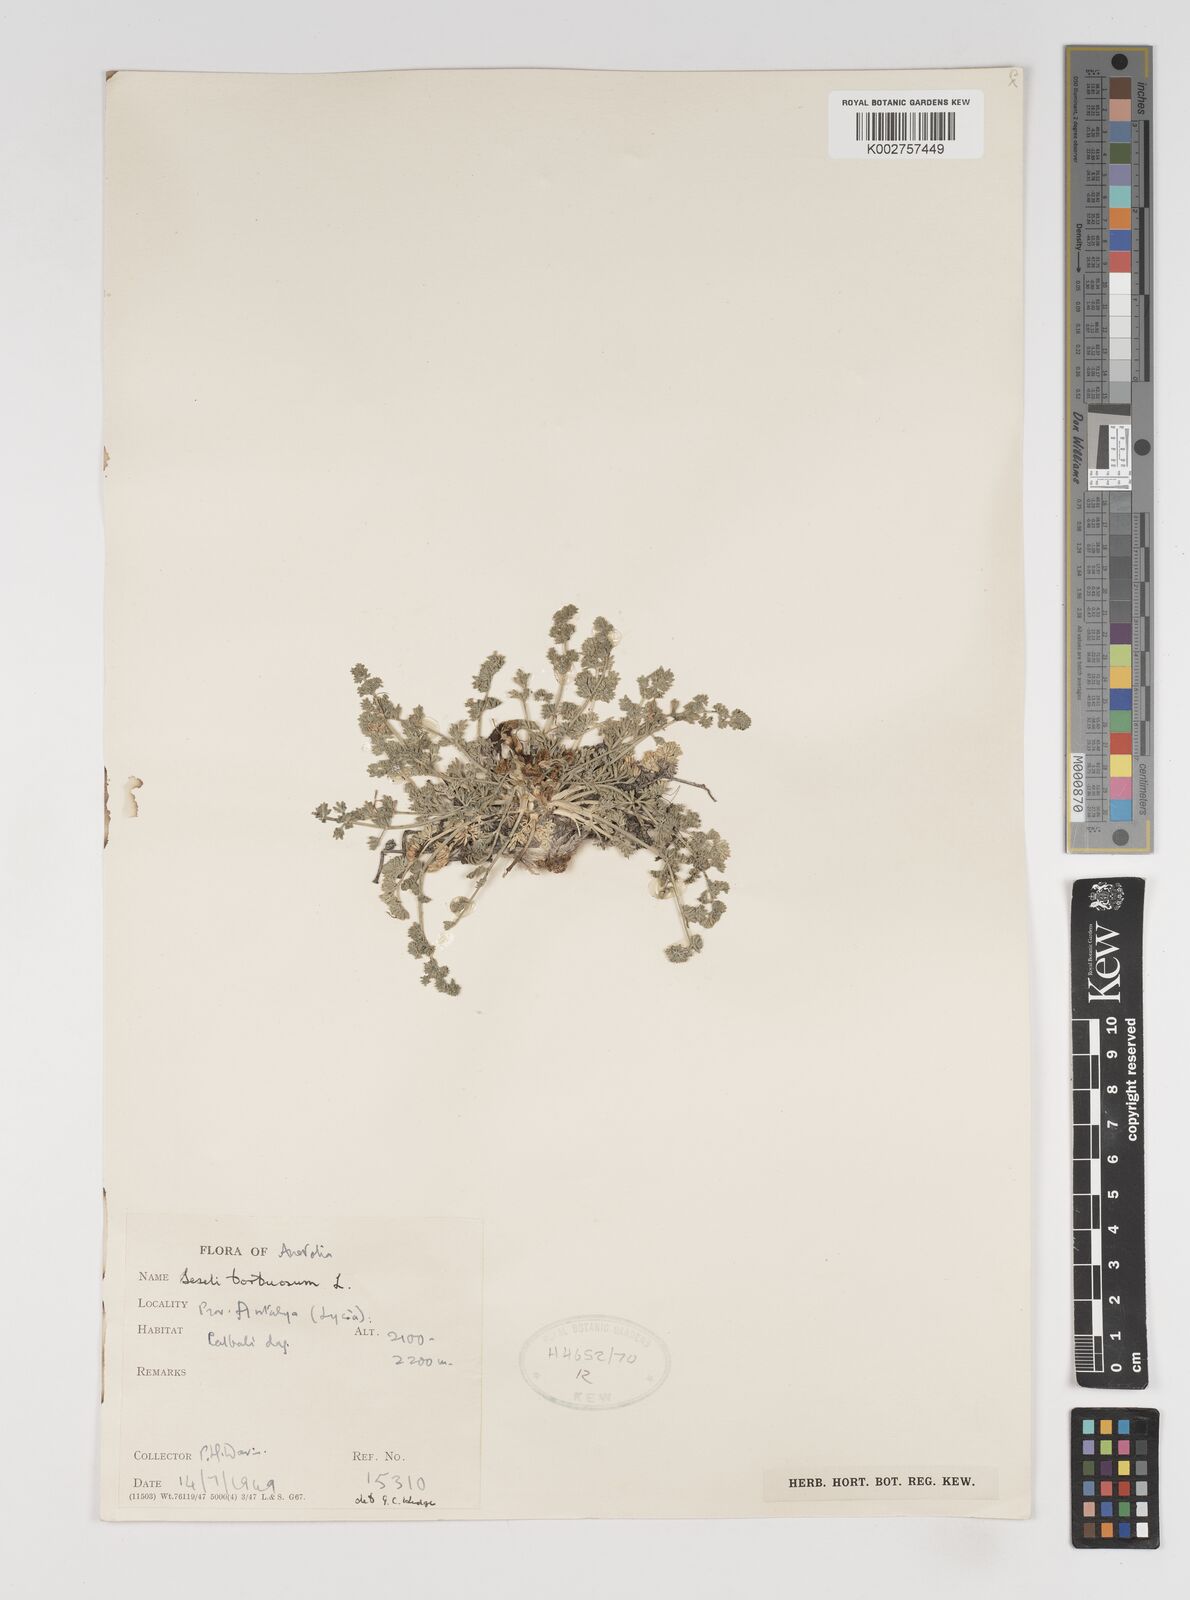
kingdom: Plantae
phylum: Tracheophyta
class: Magnoliopsida
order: Apiales
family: Apiaceae
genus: Seseli
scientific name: Seseli hartvigii
